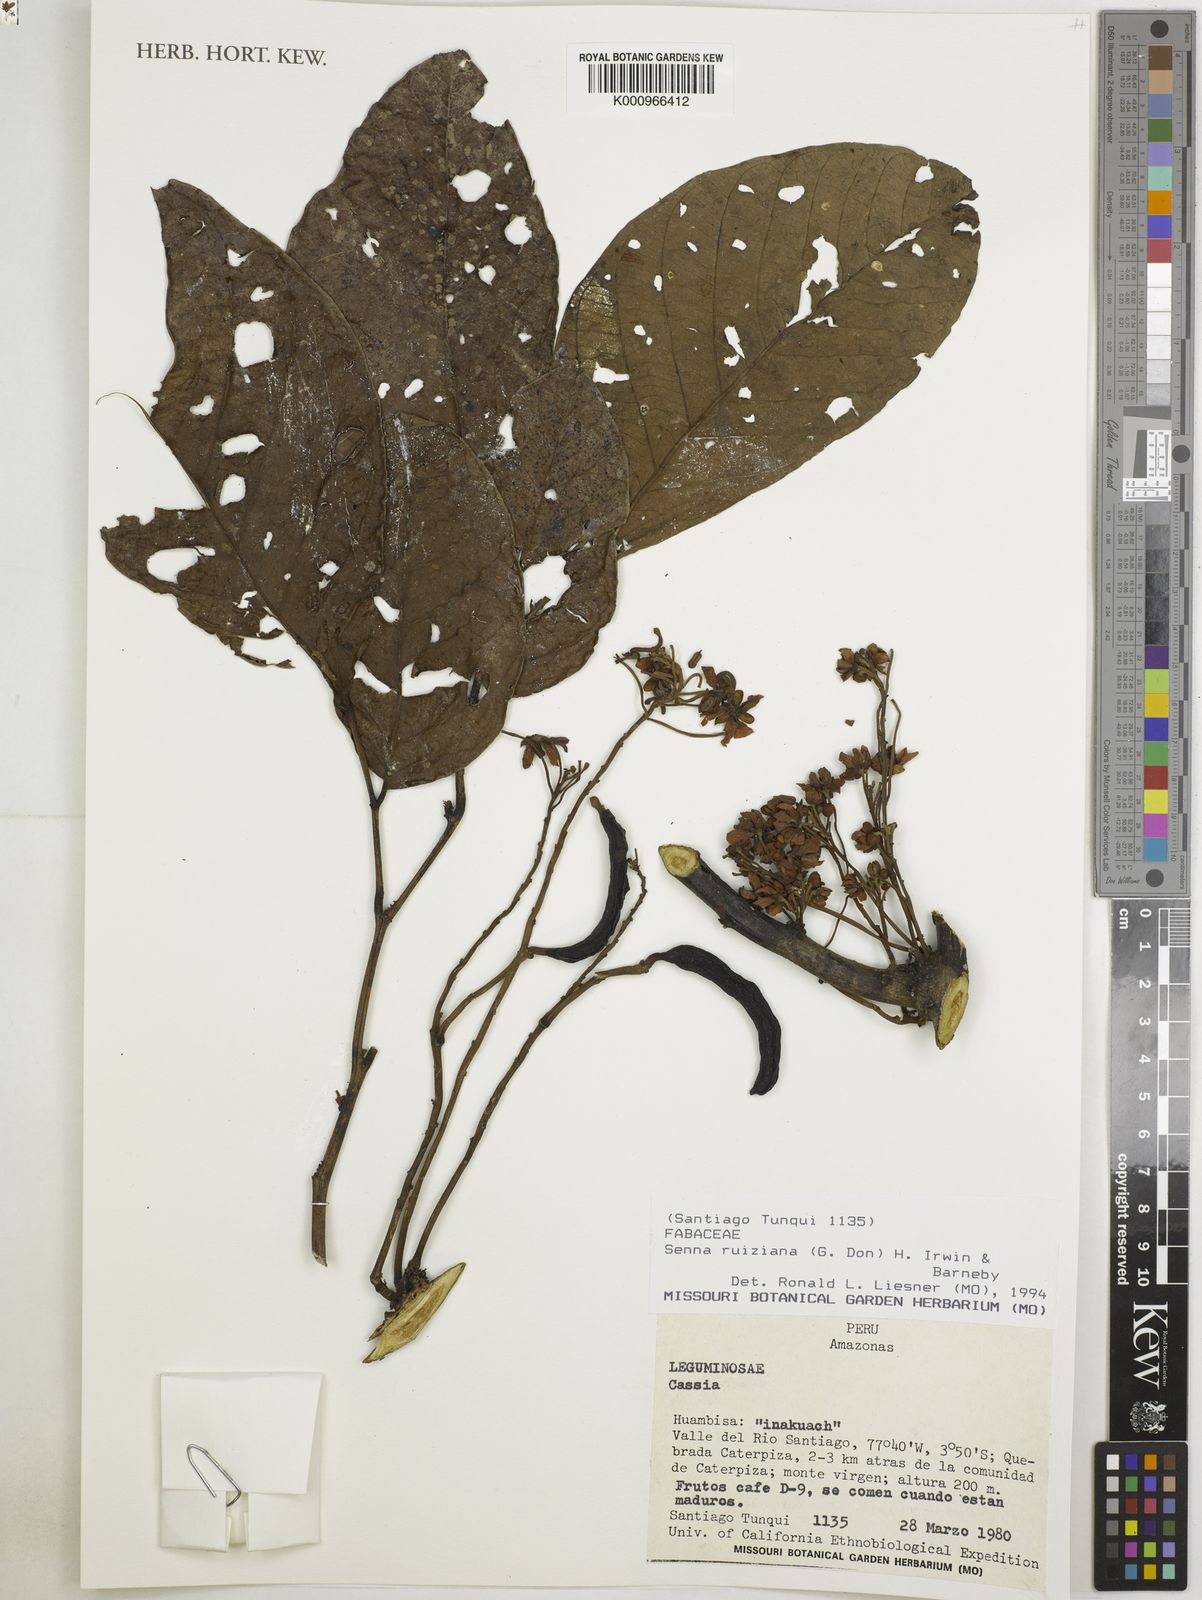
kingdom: Plantae
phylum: Tracheophyta
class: Magnoliopsida
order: Fabales
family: Fabaceae
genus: Senna
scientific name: Senna ruiziana
